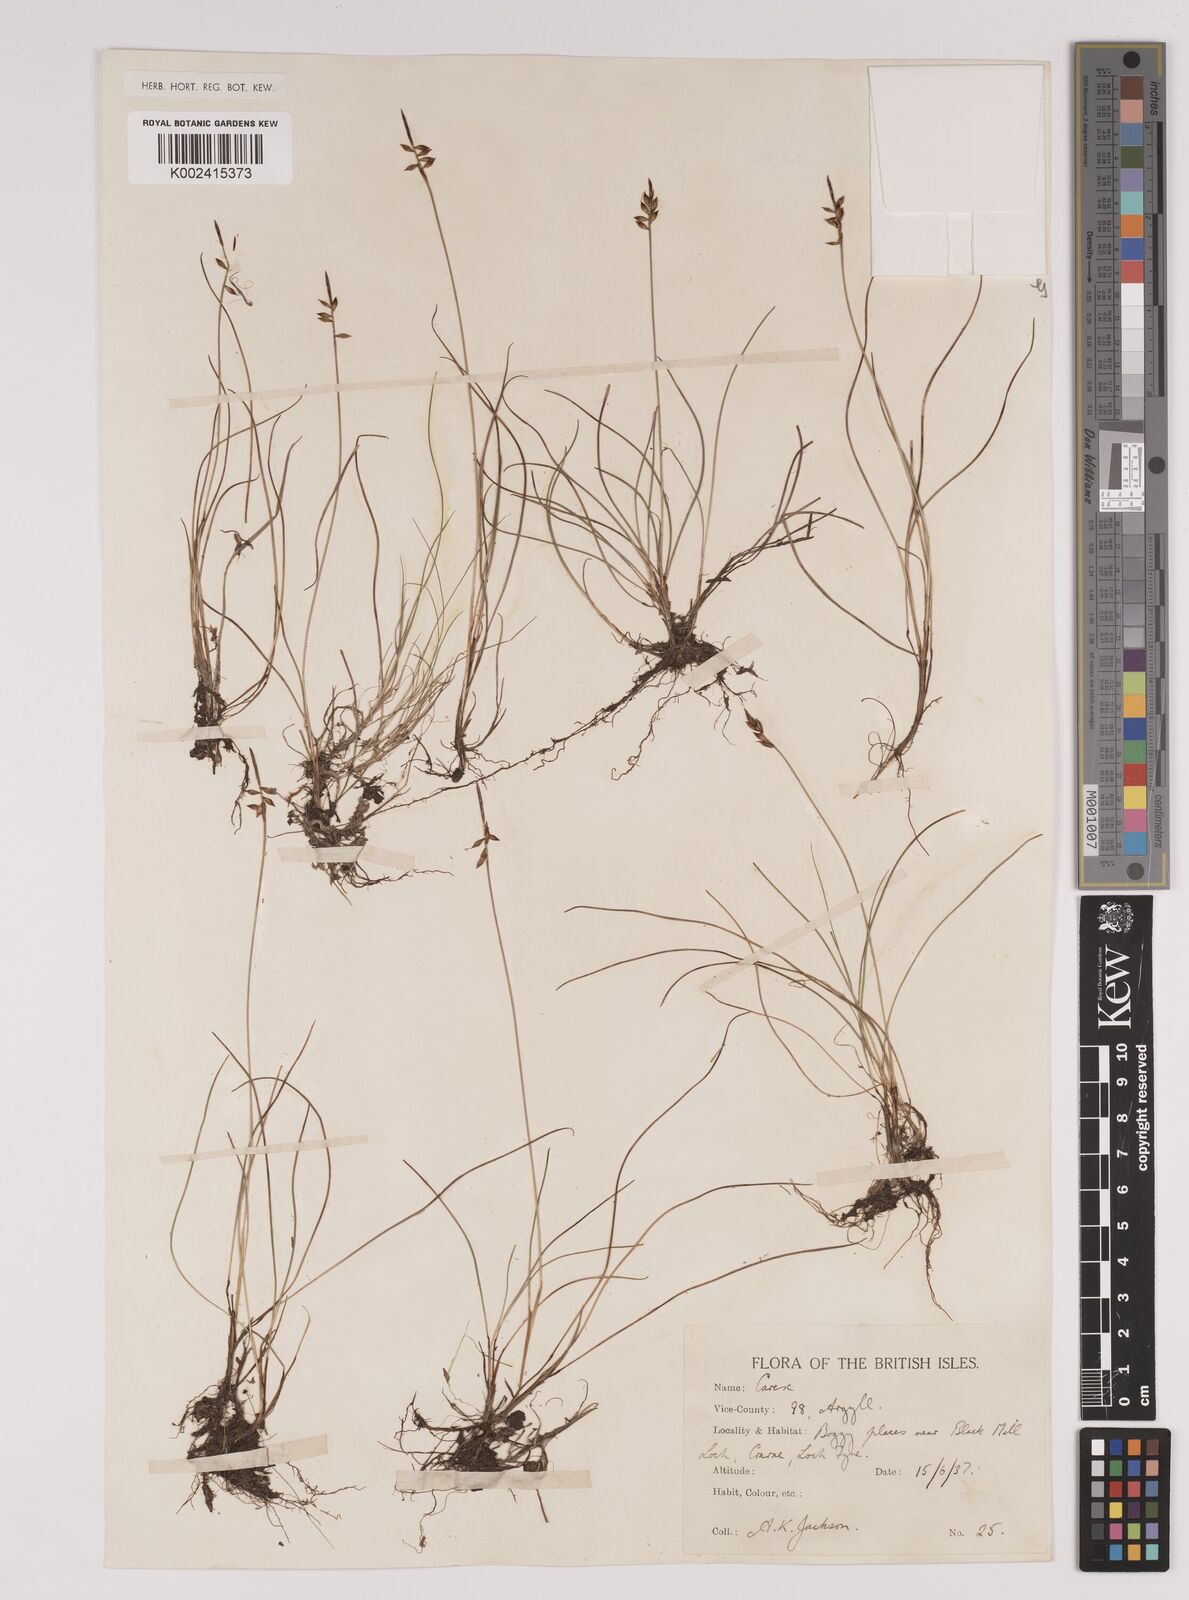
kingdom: Plantae
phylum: Tracheophyta
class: Liliopsida
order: Poales
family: Cyperaceae
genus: Carex
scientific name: Carex pulicaris
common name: Flea sedge
